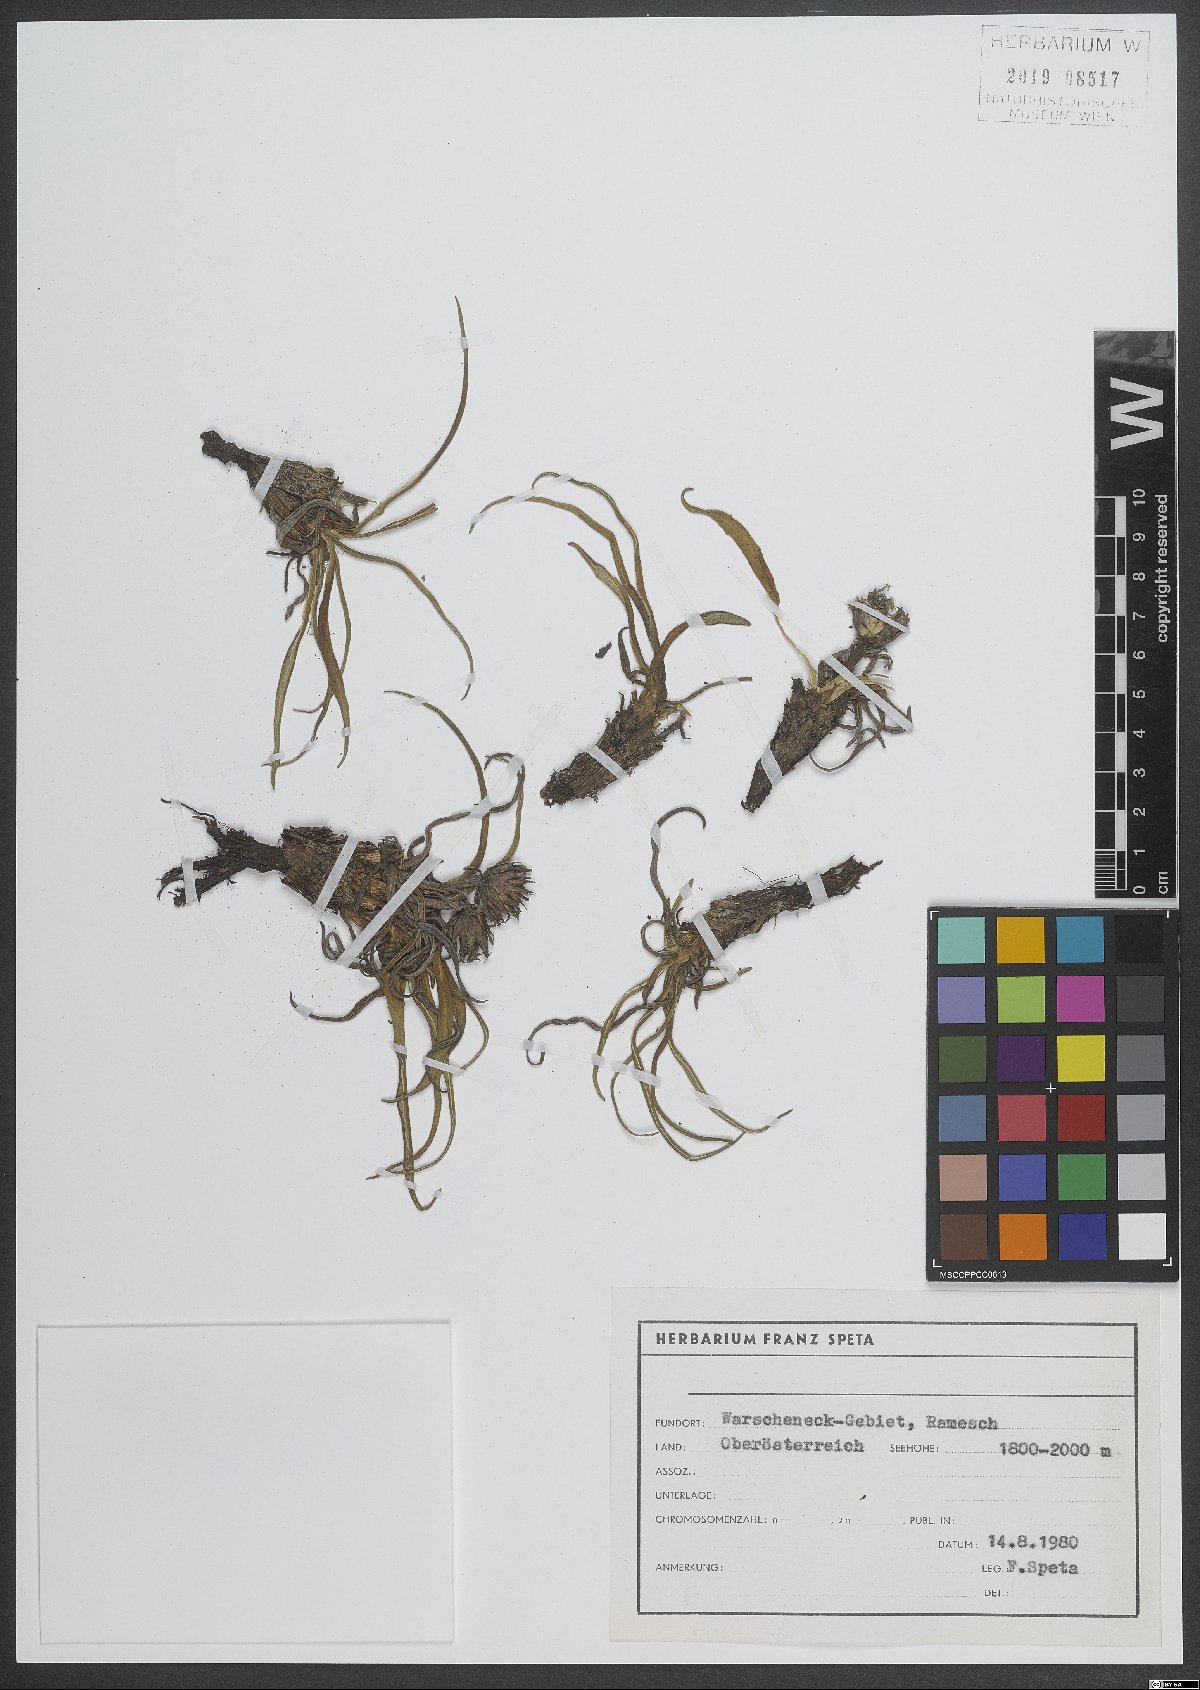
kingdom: Plantae
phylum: Tracheophyta
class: Magnoliopsida
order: Asterales
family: Asteraceae
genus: Saussurea
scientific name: Saussurea pygmaea
